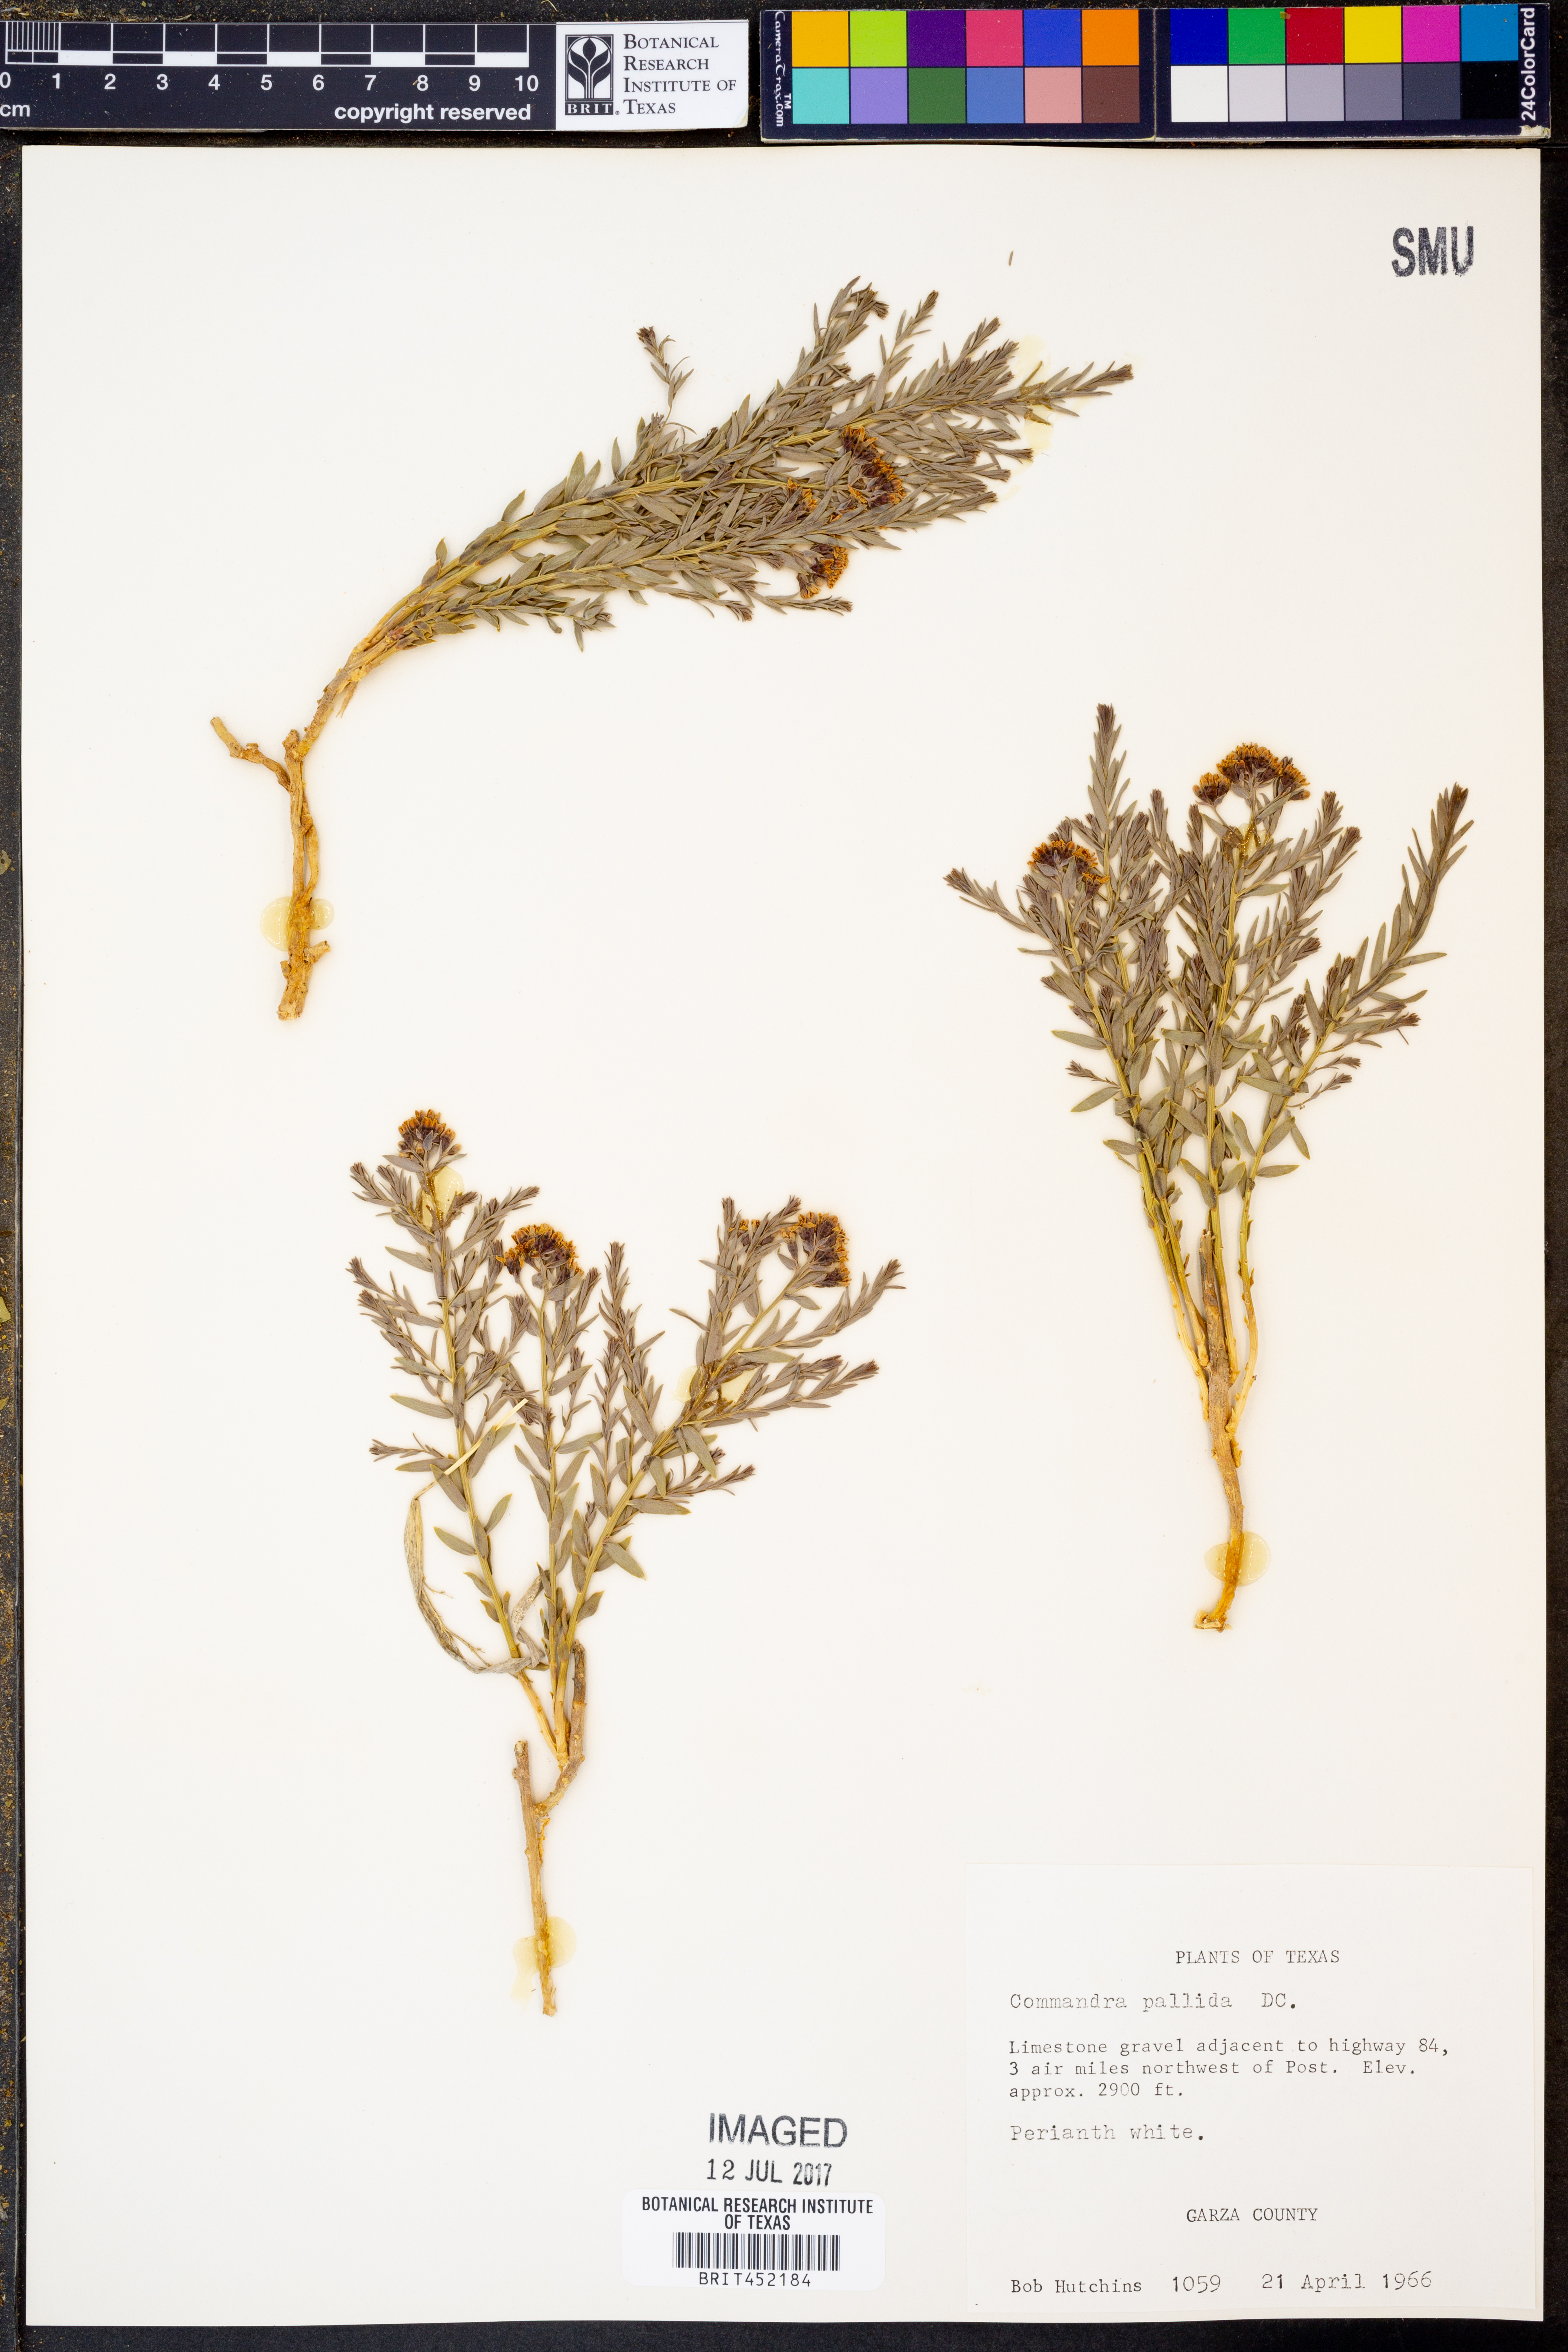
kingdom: Plantae
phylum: Tracheophyta
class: Magnoliopsida
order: Santalales
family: Comandraceae
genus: Comandra
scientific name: Comandra umbellata
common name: Bastard toadflax
